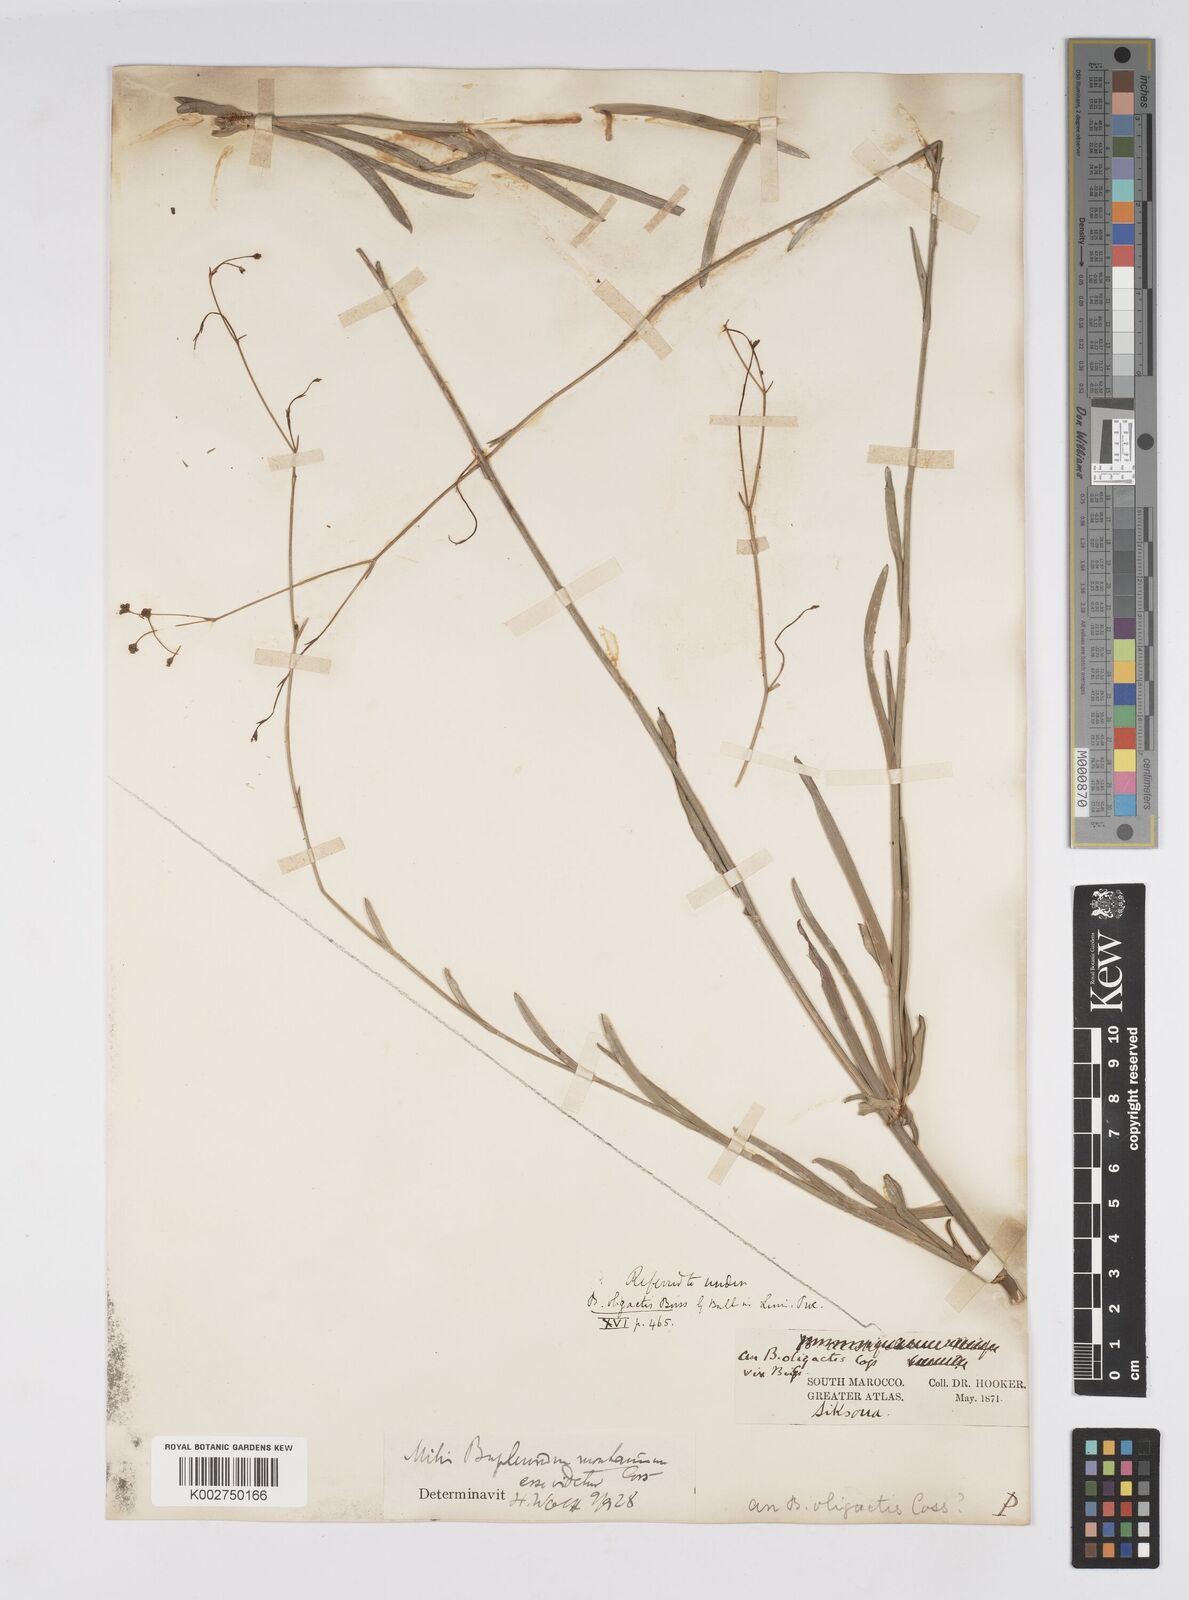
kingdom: Plantae
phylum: Tracheophyta
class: Magnoliopsida
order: Apiales
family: Apiaceae
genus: Bupleurum
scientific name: Bupleurum montanum
